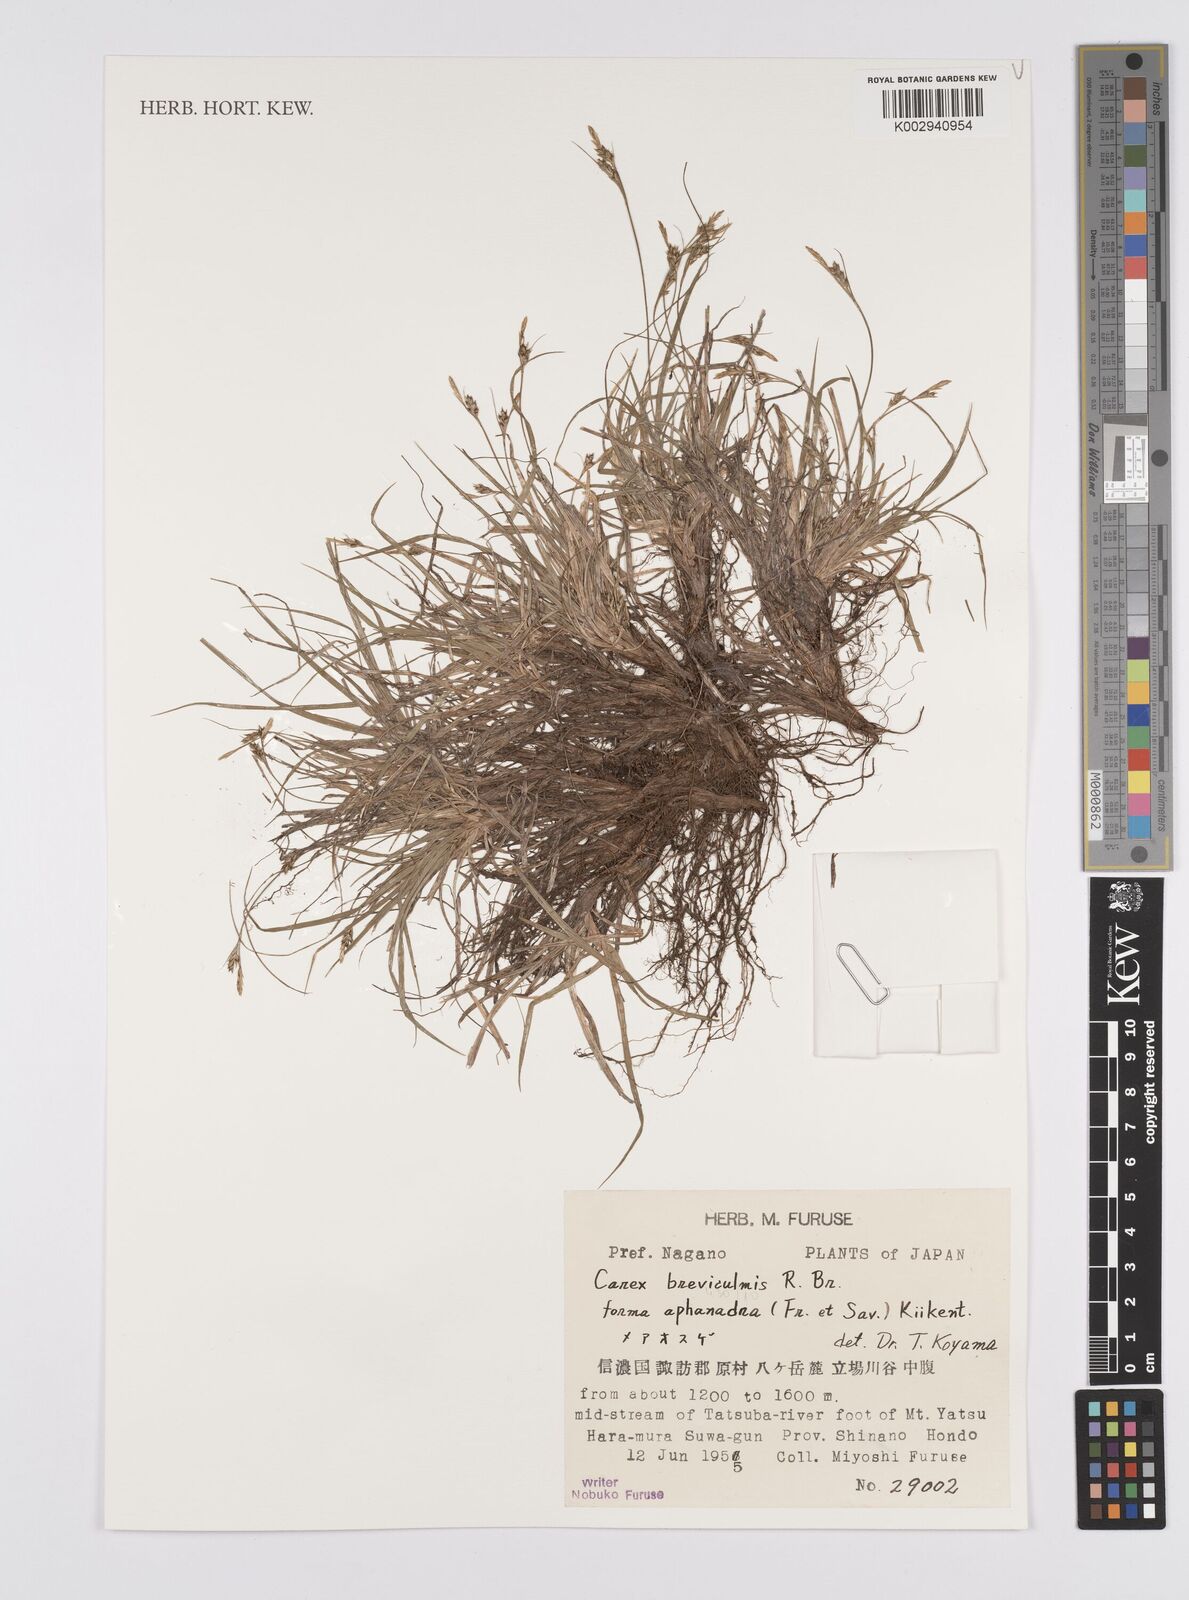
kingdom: Plantae
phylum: Tracheophyta
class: Liliopsida
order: Poales
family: Cyperaceae
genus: Carex
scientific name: Carex breviculmis
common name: Asian shortstem sedge
